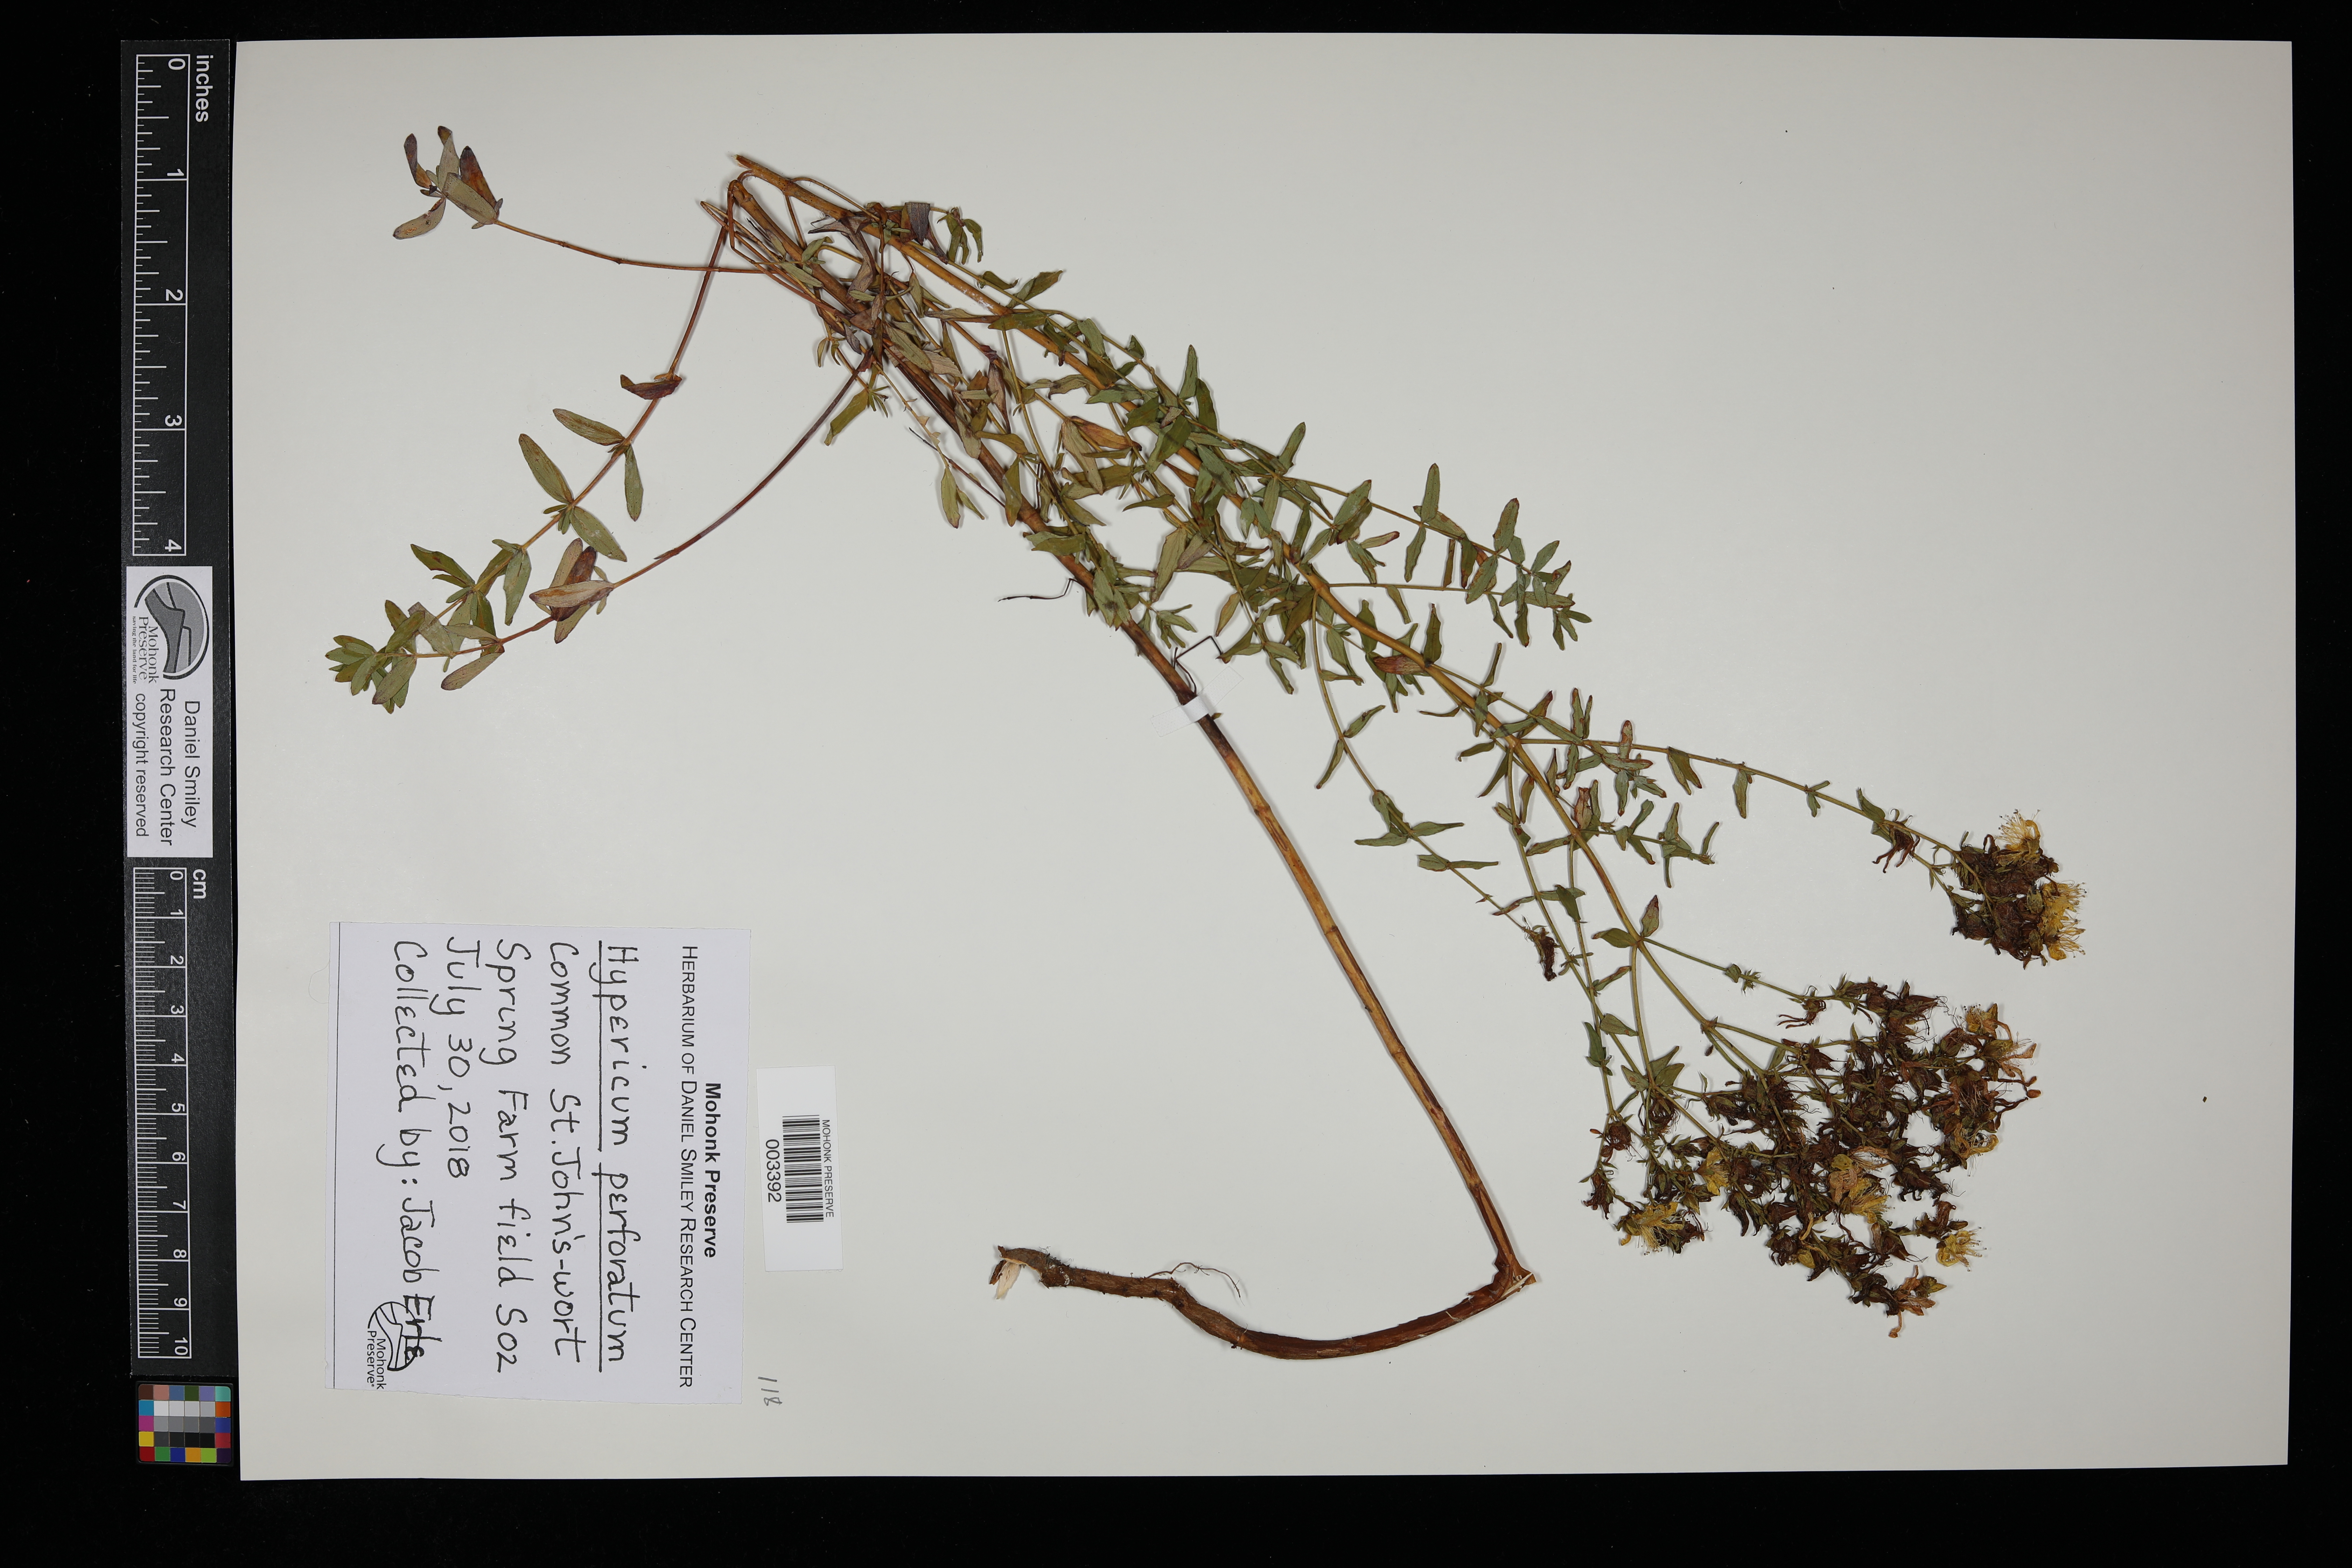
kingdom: Plantae
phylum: Tracheophyta
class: Magnoliopsida
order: Malpighiales
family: Hypericaceae
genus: Hypericum
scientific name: Hypericum perforatum
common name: Common st. johnswort
